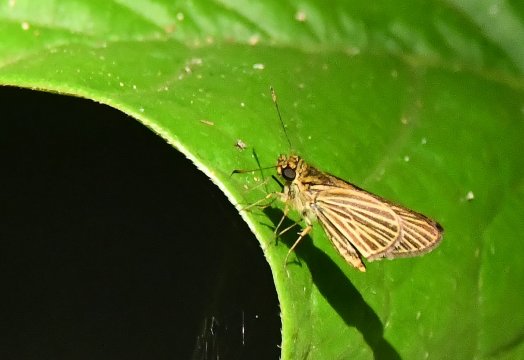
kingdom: Animalia
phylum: Arthropoda
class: Insecta
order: Lepidoptera
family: Hesperiidae
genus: Callimormus
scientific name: Callimormus radiola
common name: Radiant Skipper
